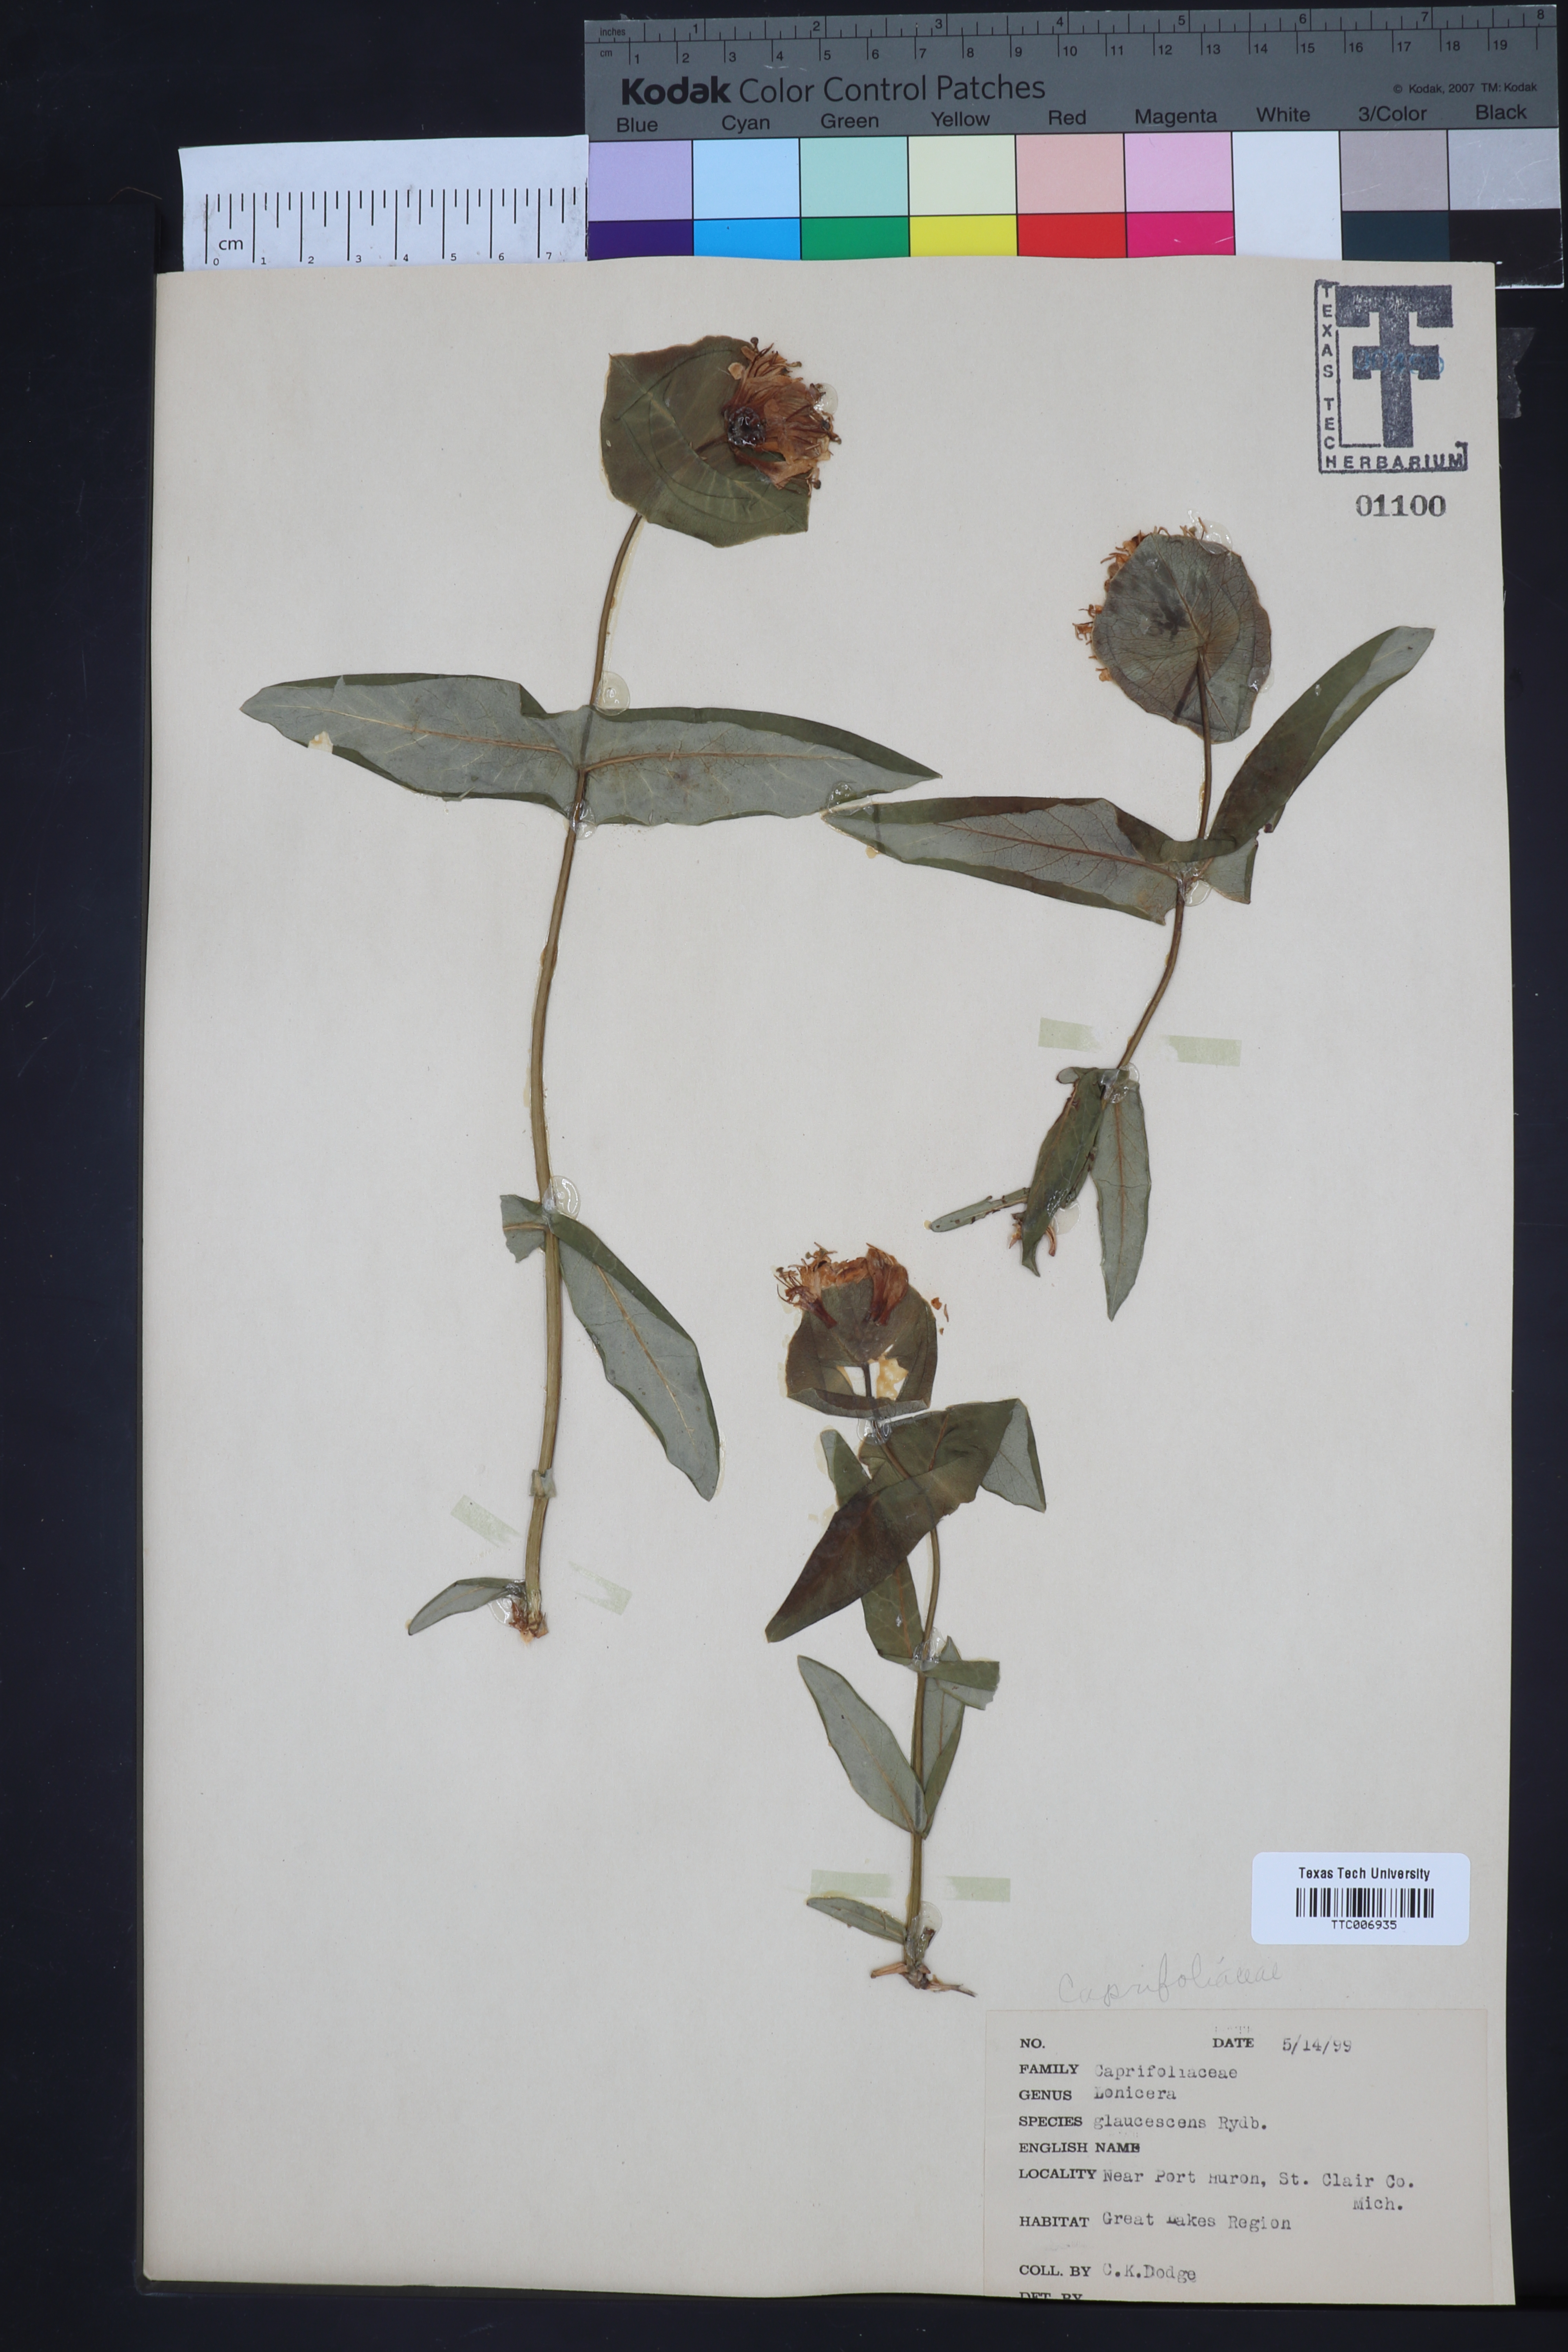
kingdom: Plantae
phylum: Tracheophyta
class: Magnoliopsida
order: Dipsacales
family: Caprifoliaceae
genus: Lonicera
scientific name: Lonicera dioica
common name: Limber honeysuckle
